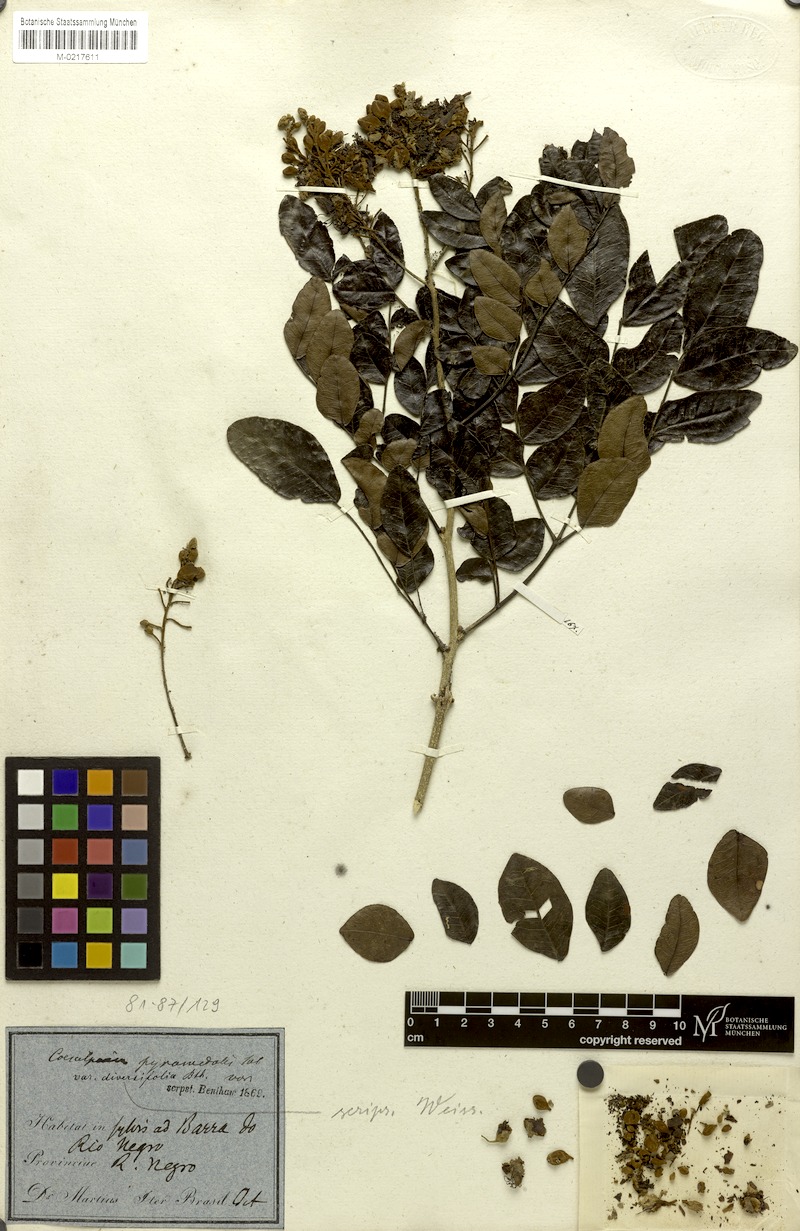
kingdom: Plantae
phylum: Tracheophyta
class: Magnoliopsida
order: Fabales
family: Fabaceae
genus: Cenostigma
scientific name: Cenostigma diversifolium
